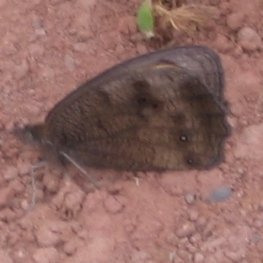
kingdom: Animalia
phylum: Arthropoda
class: Insecta
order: Lepidoptera
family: Nymphalidae
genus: Cercyonis
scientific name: Cercyonis pegala
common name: Common Wood-Nymph
